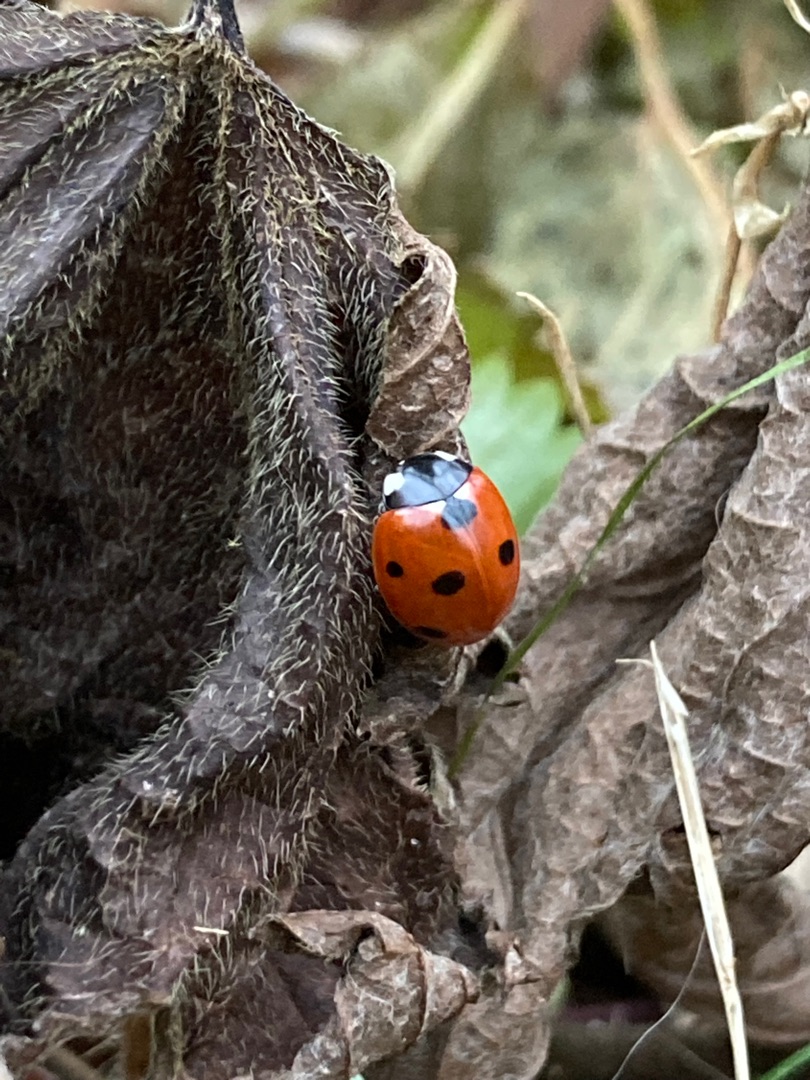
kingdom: Animalia
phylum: Arthropoda
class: Insecta
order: Coleoptera
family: Coccinellidae
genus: Coccinella
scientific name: Coccinella septempunctata
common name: Syvplettet mariehøne
